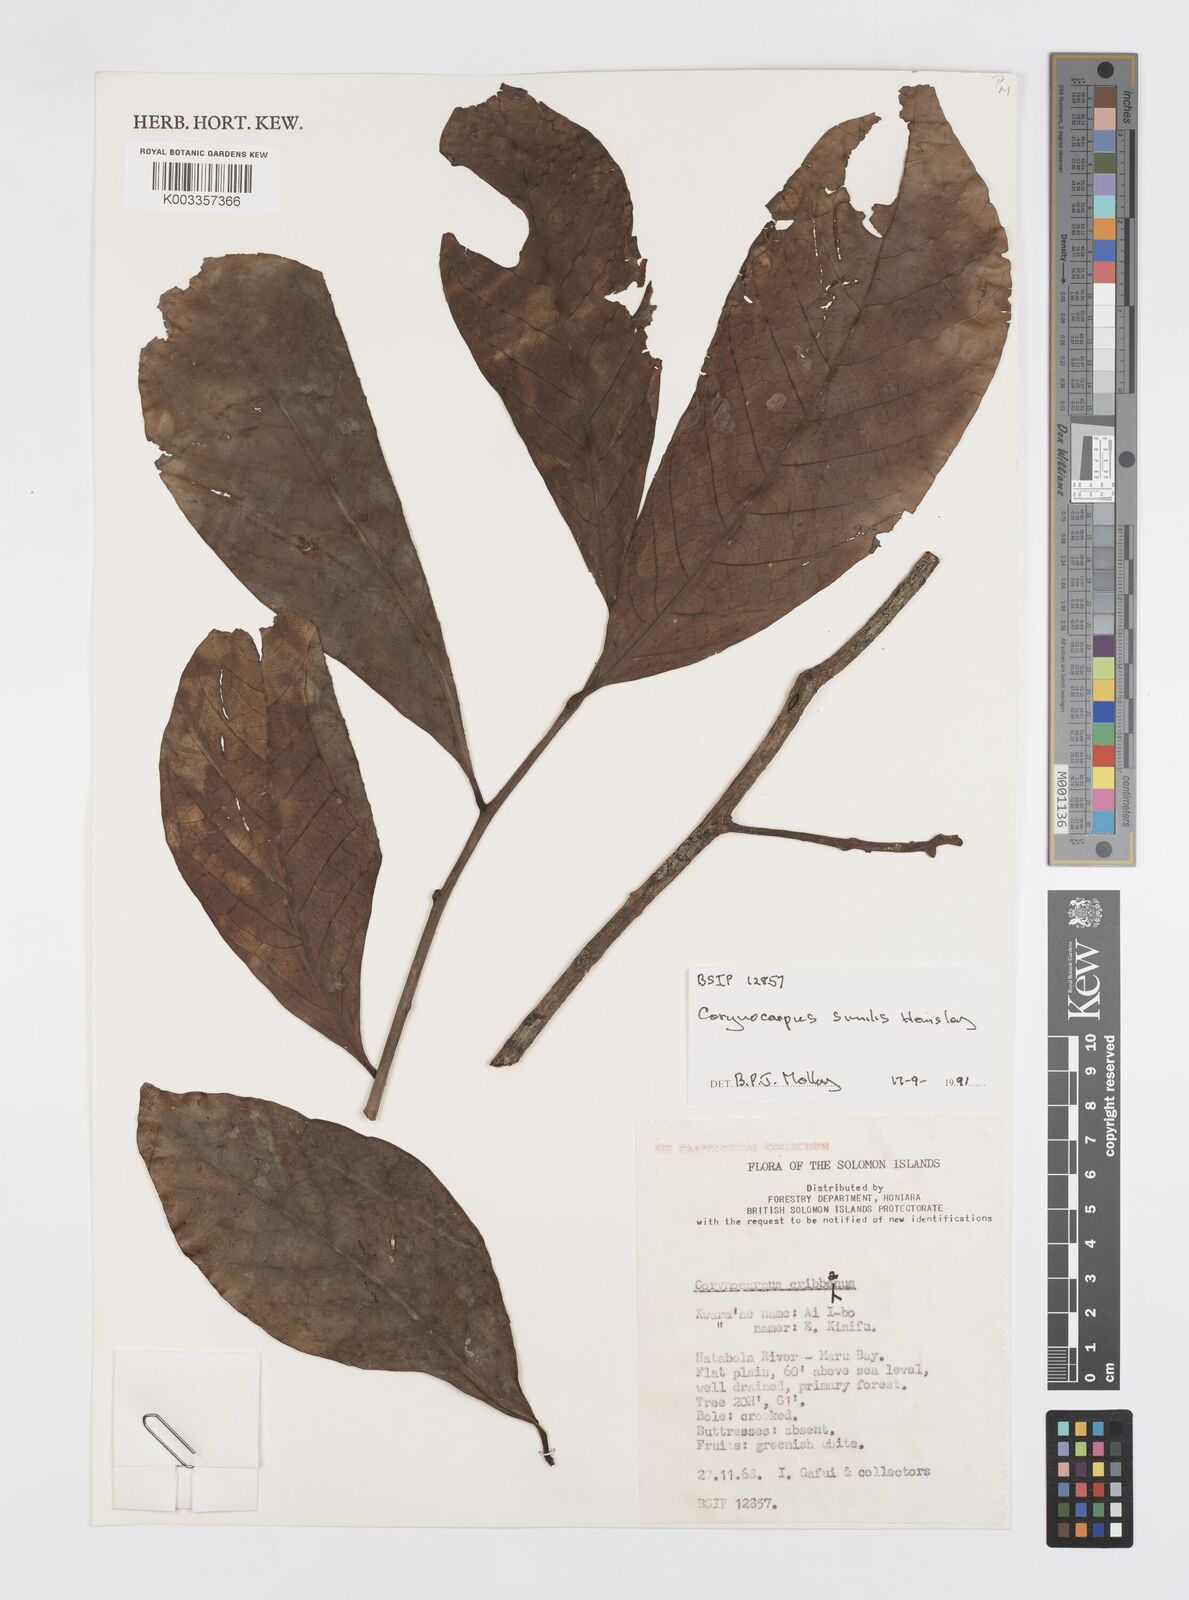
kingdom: Plantae
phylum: Tracheophyta
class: Magnoliopsida
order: Cucurbitales
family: Corynocarpaceae
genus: Corynocarpus
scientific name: Corynocarpus similis
